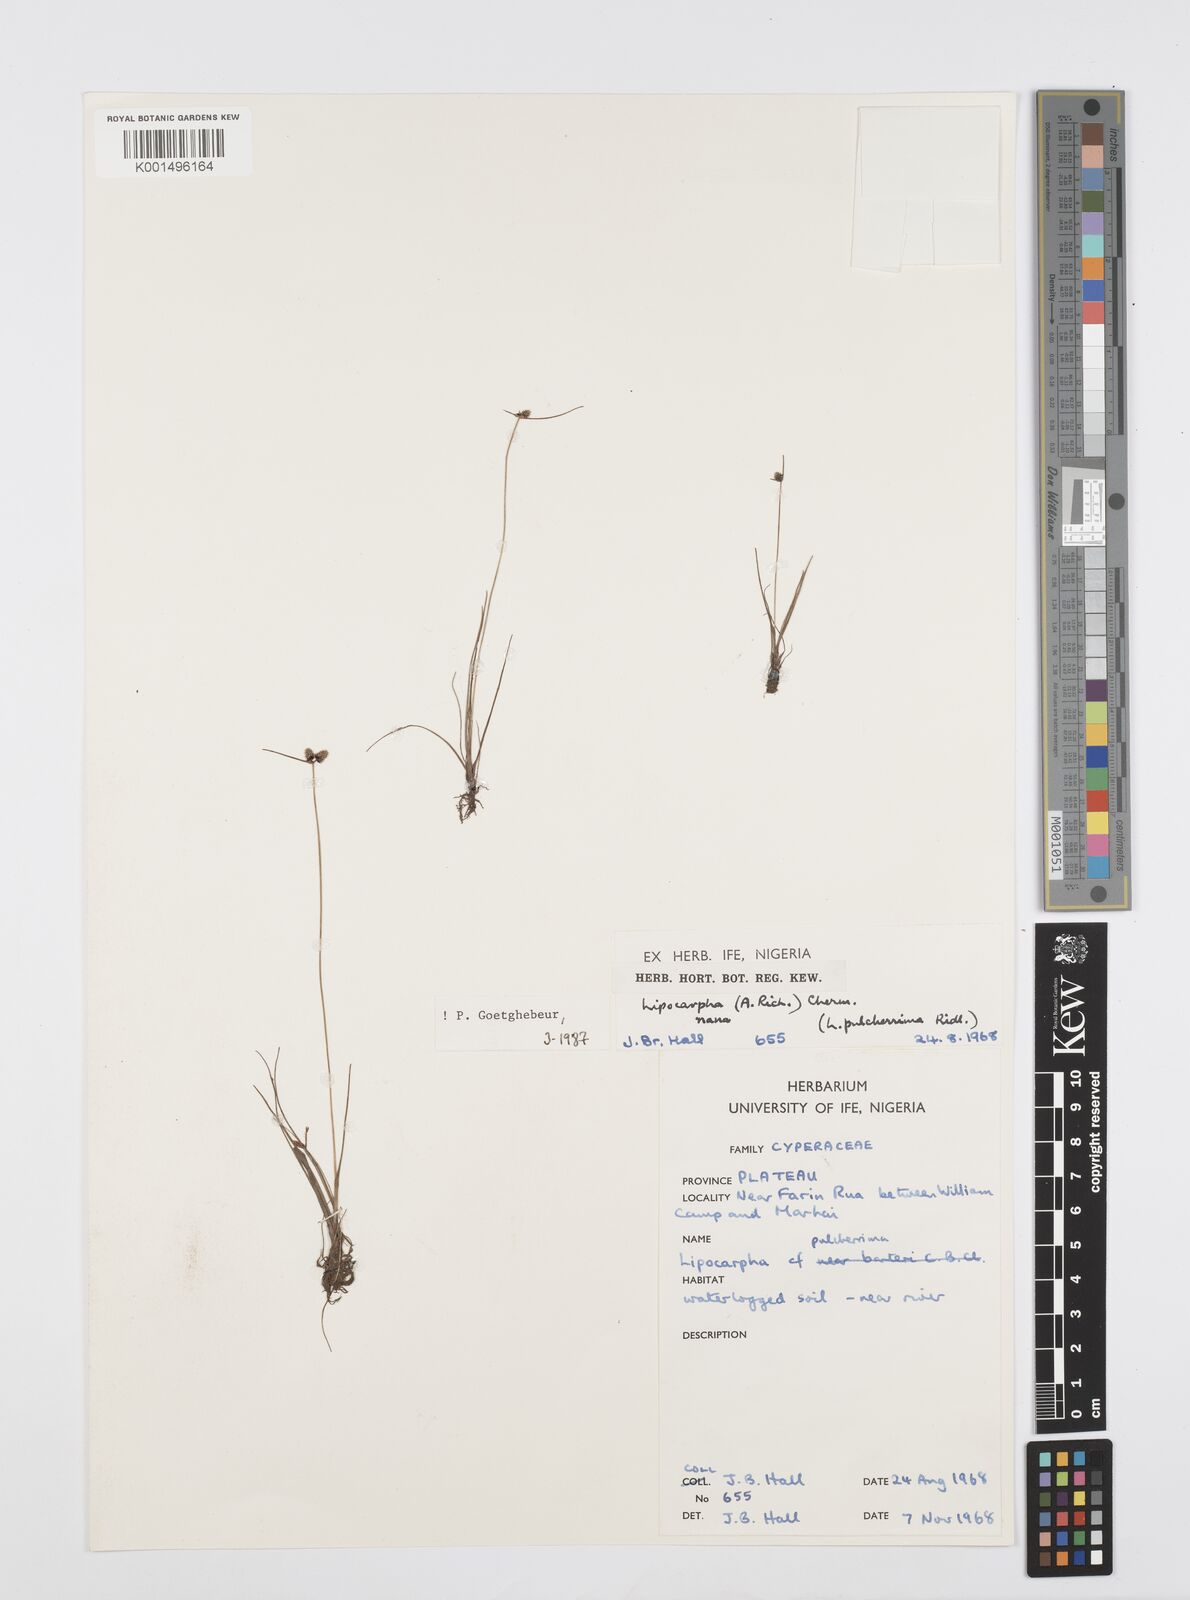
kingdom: Plantae
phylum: Tracheophyta
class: Liliopsida
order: Poales
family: Cyperaceae
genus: Cyperus
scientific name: Cyperus persquarrosus
